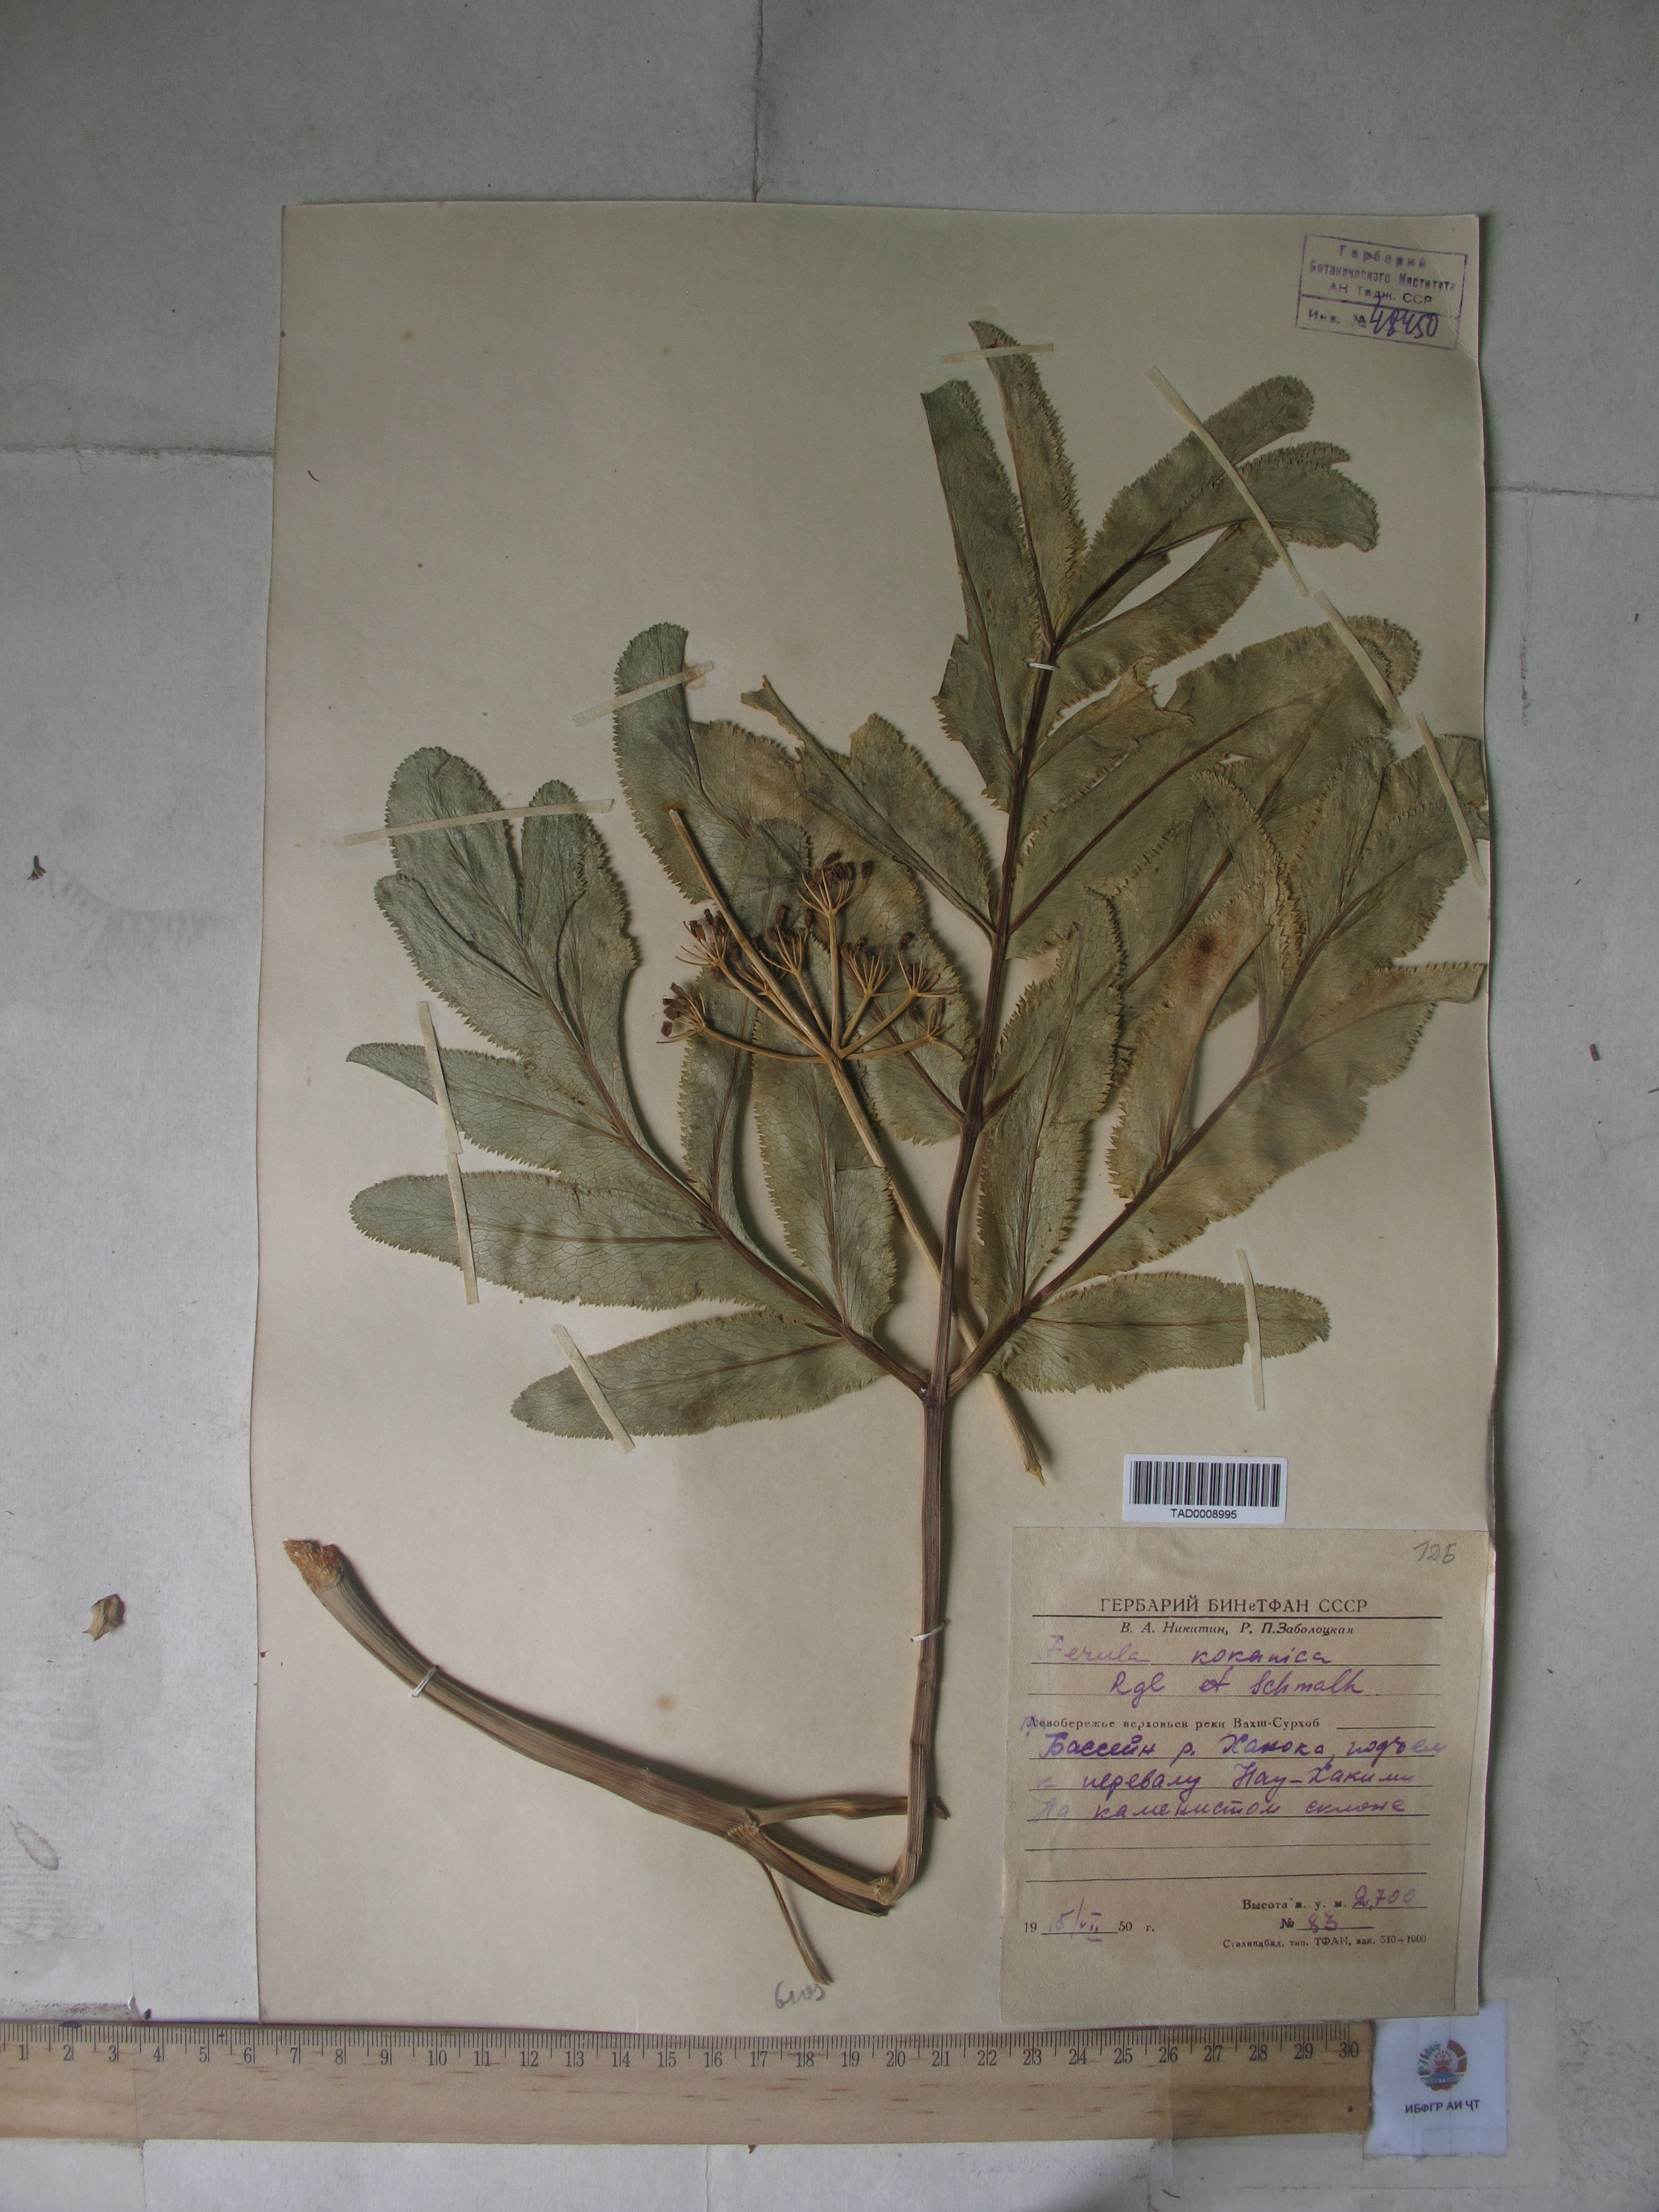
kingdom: Plantae
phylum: Tracheophyta
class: Magnoliopsida
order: Apiales
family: Apiaceae
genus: Ferula
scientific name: Ferula kokanica
